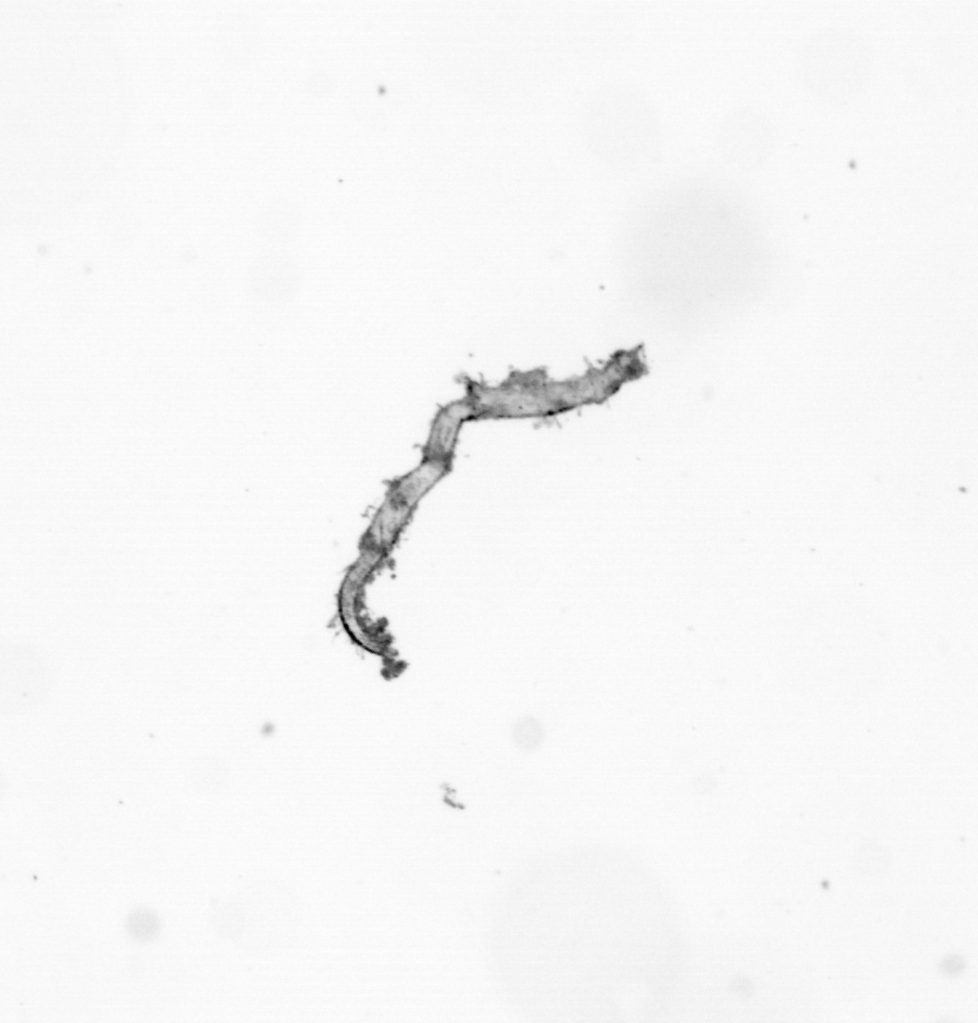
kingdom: Animalia
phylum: Annelida
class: Polychaeta
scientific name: Polychaeta
